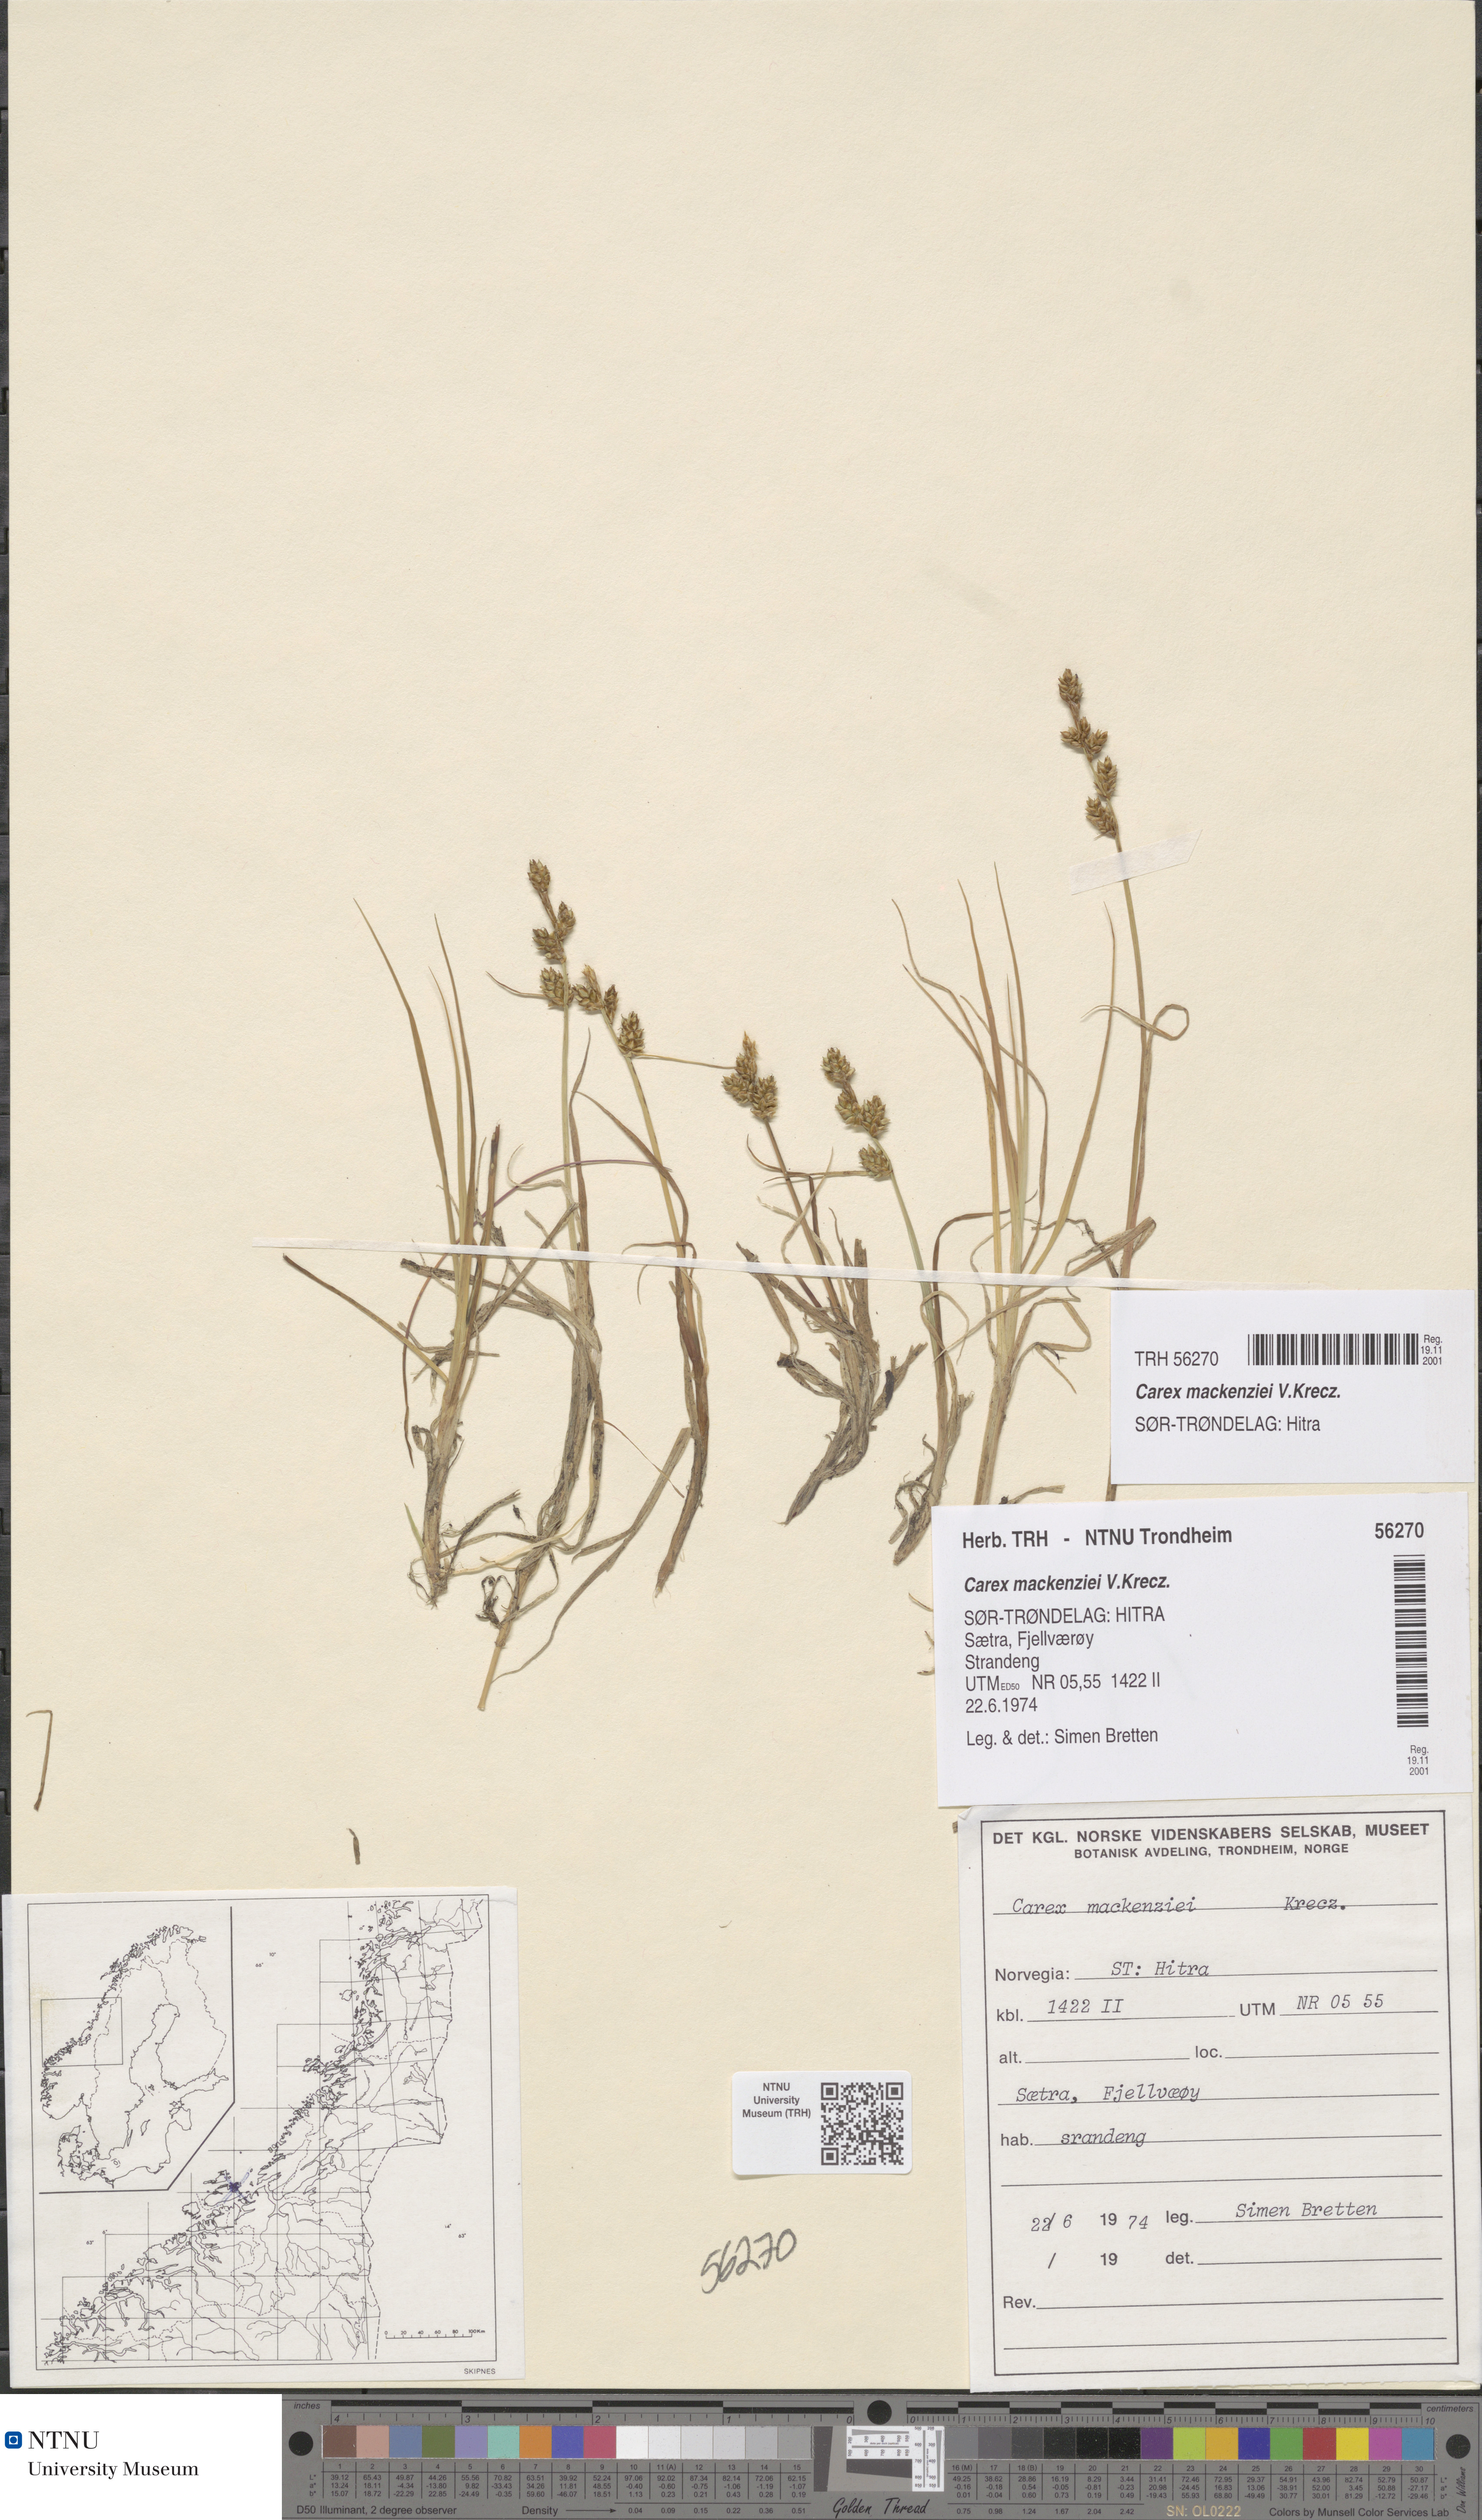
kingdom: Plantae
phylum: Tracheophyta
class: Liliopsida
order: Poales
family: Cyperaceae
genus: Carex
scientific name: Carex mackenziei
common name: Mackenzie's sedge
